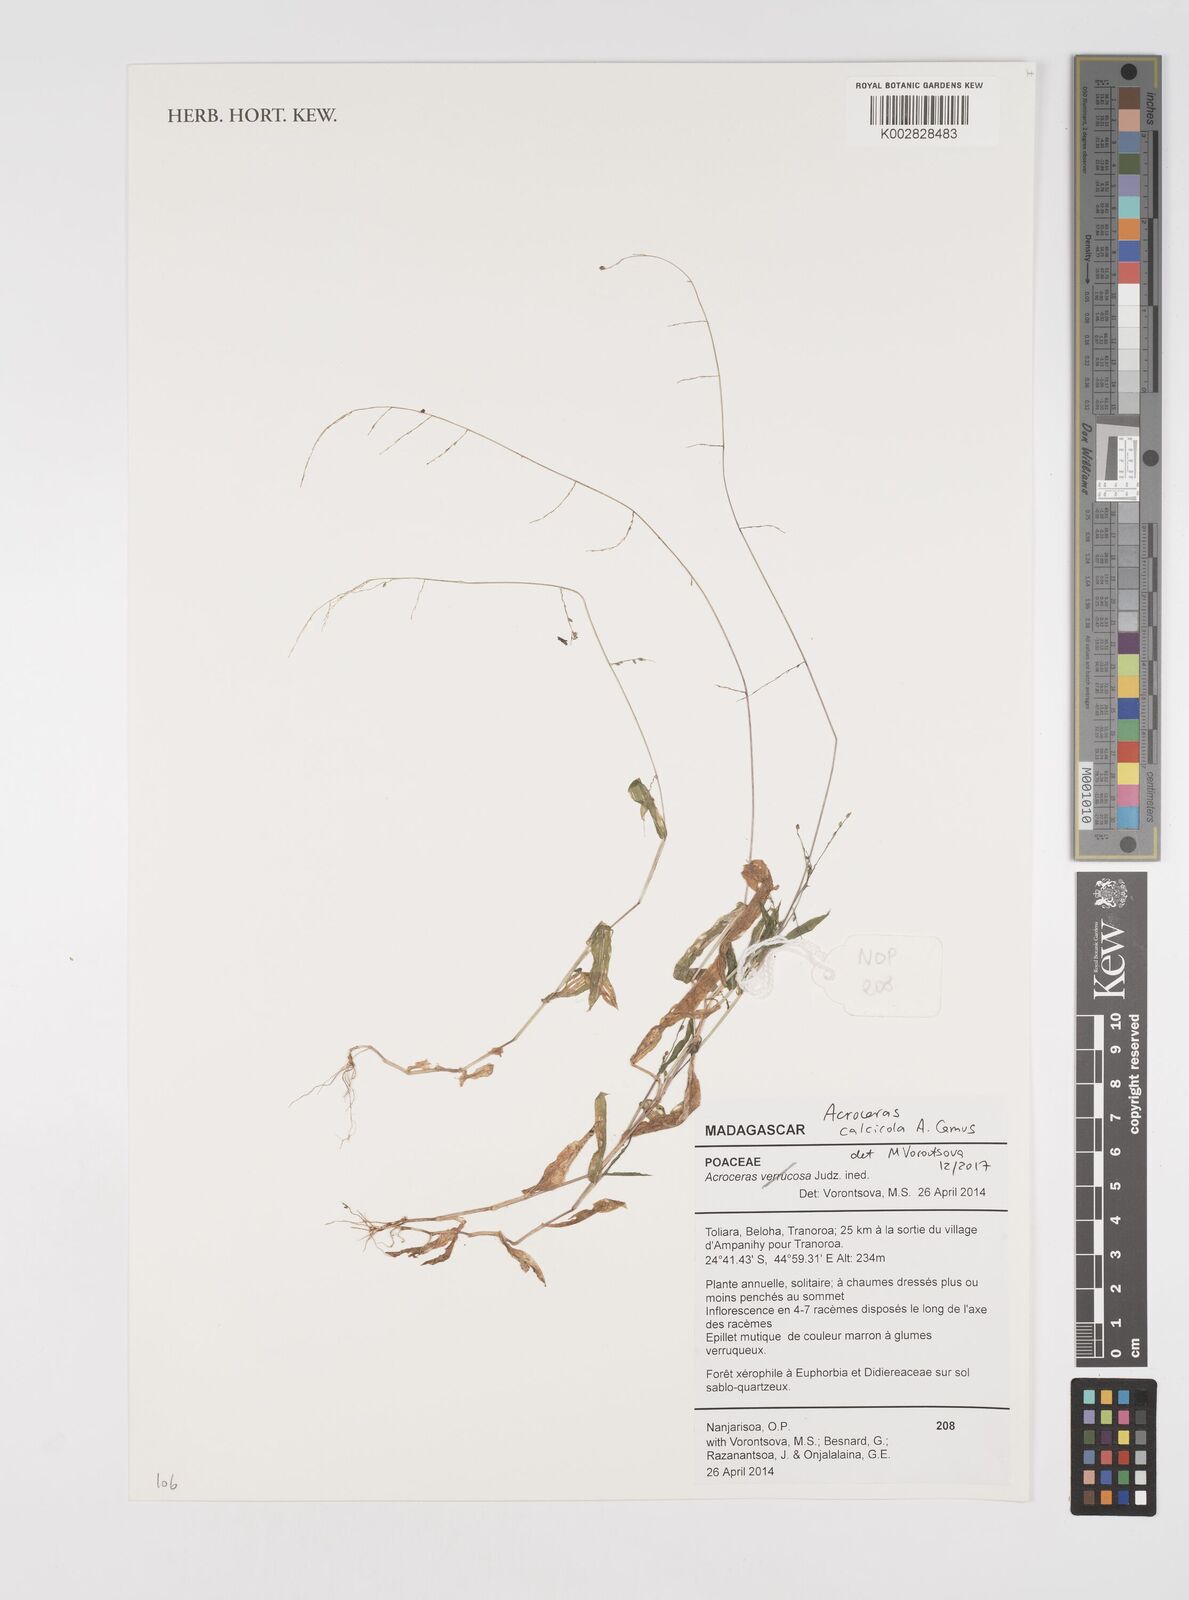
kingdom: Plantae
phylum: Tracheophyta
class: Liliopsida
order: Poales
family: Poaceae
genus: Acroceras
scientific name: Acroceras calcicola
